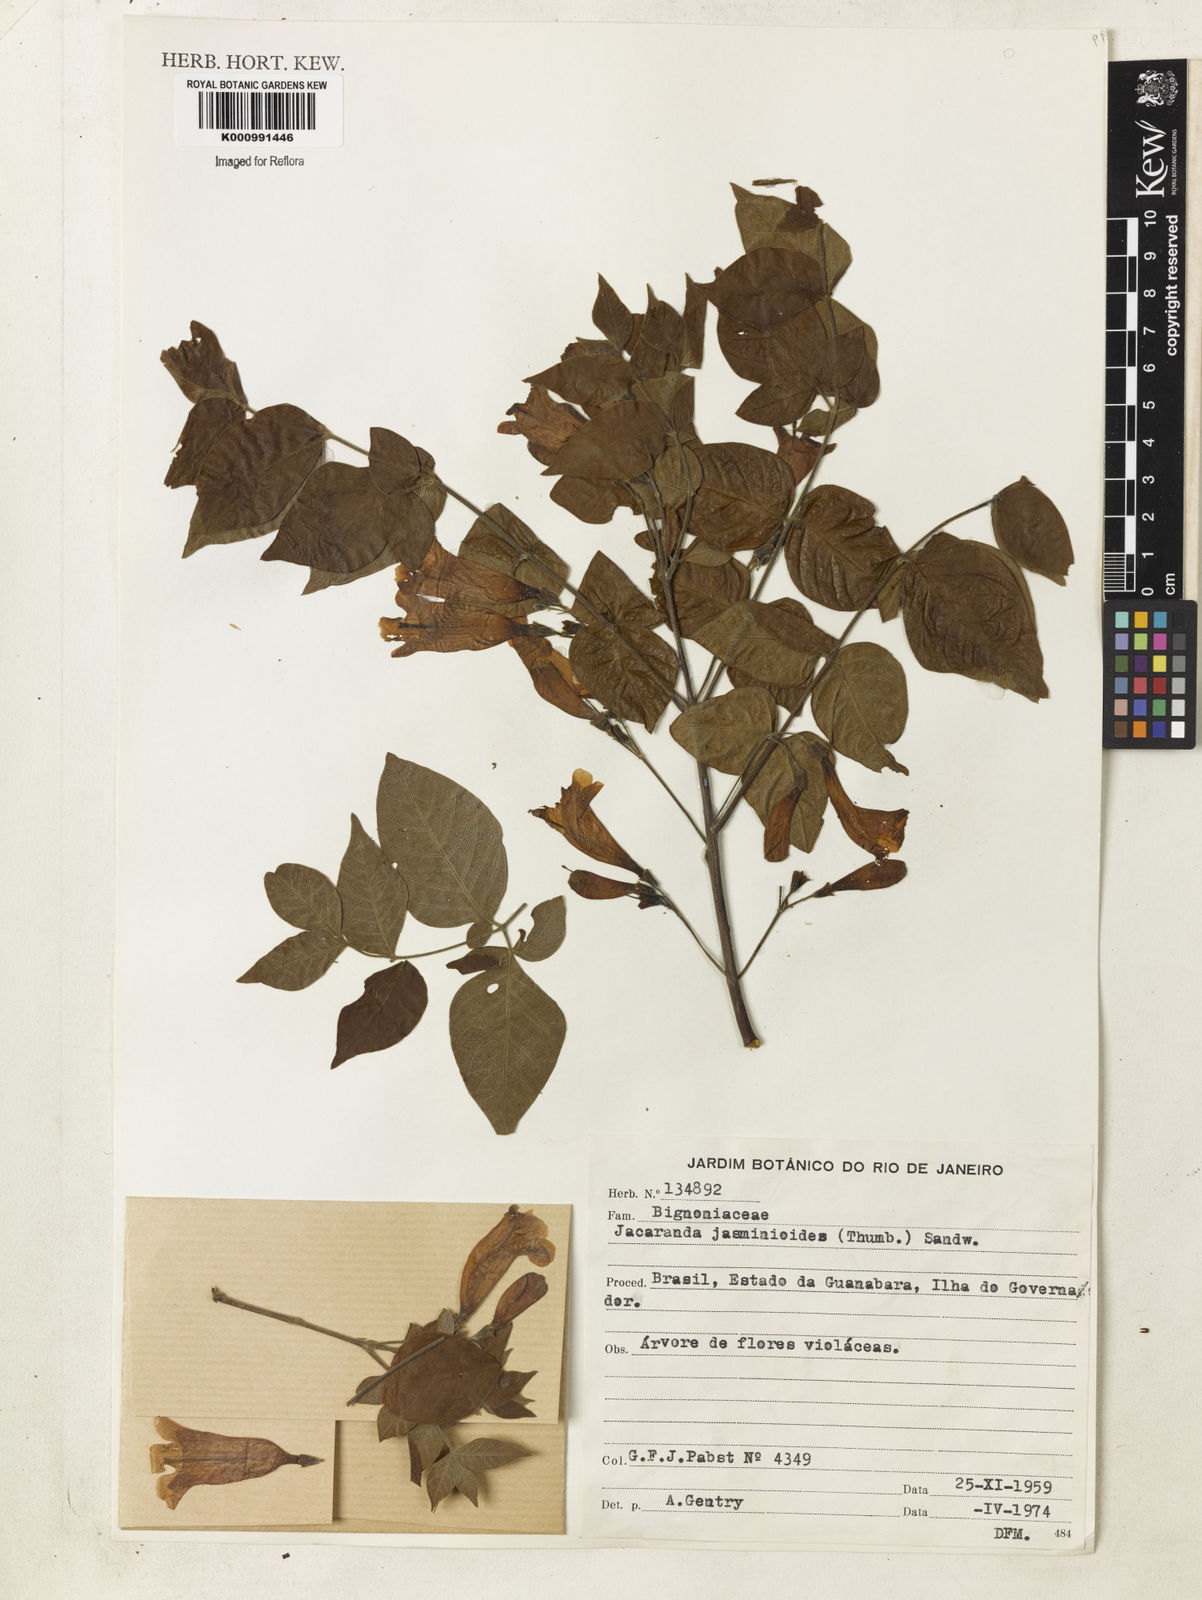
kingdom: Plantae
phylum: Tracheophyta
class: Magnoliopsida
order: Lamiales
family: Bignoniaceae
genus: Jacaranda
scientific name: Jacaranda jasminoides
